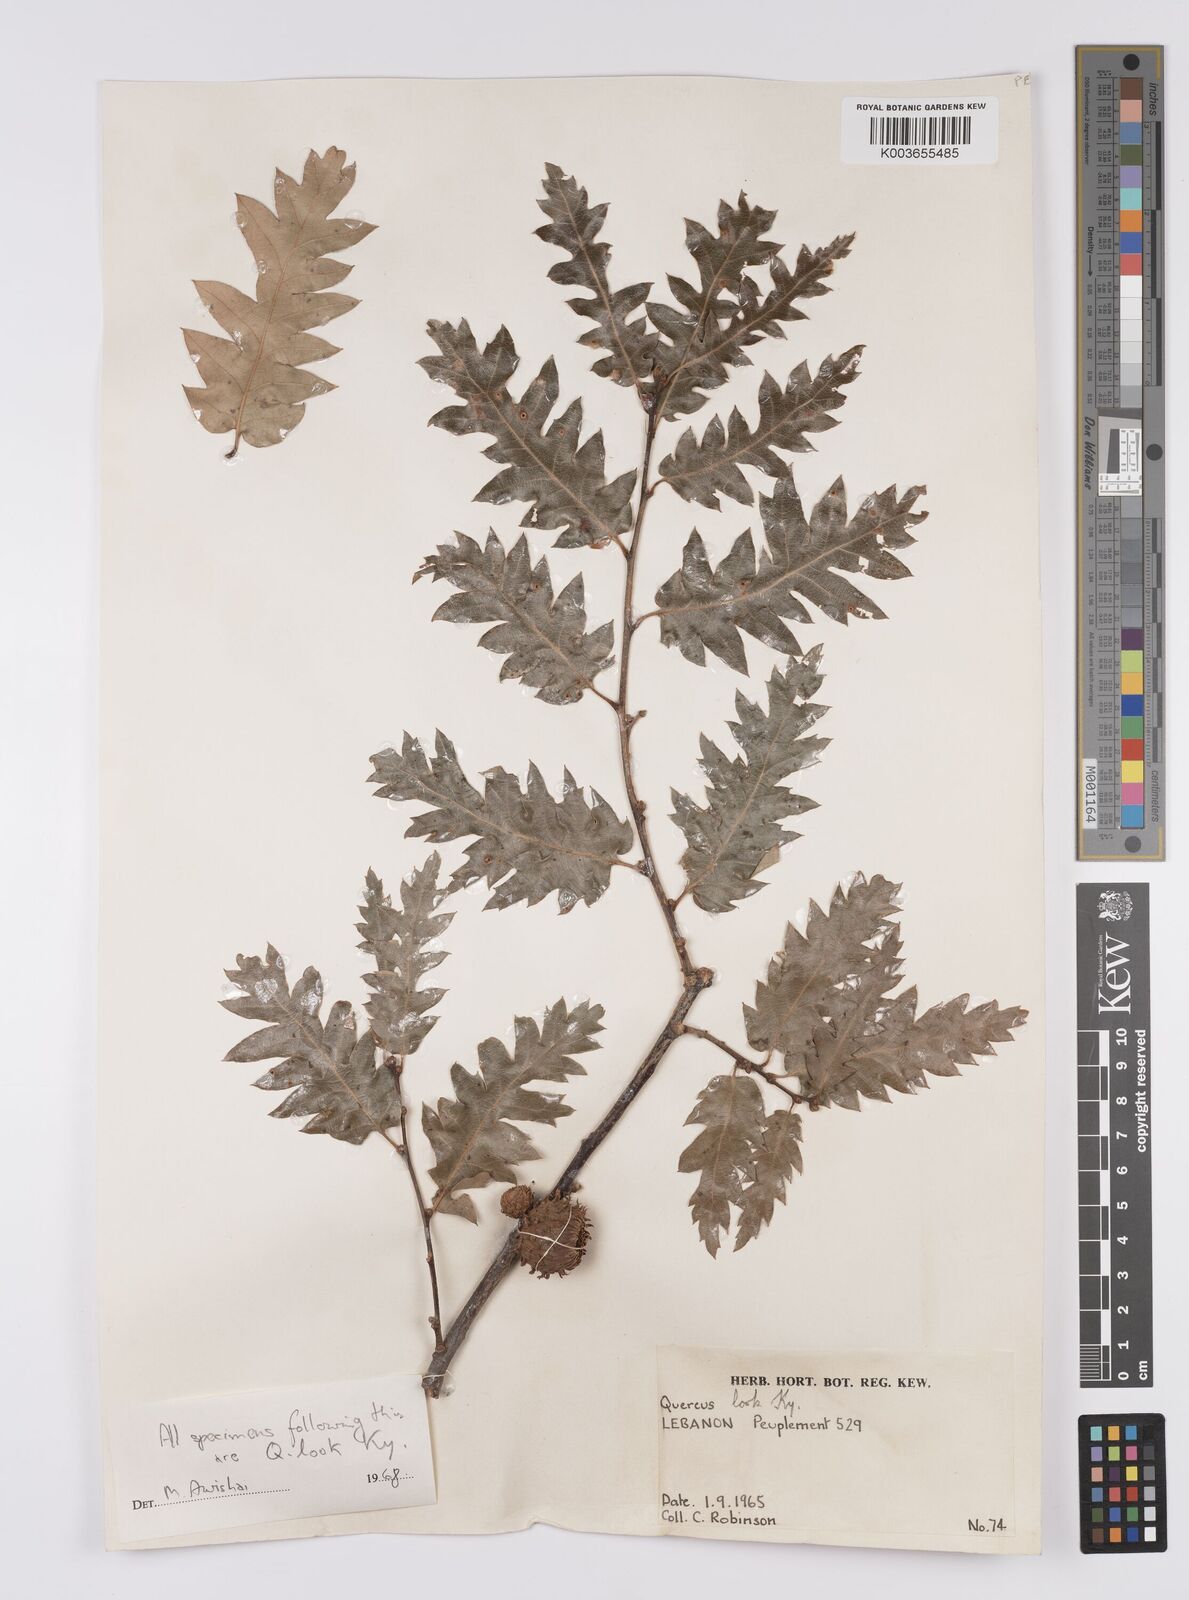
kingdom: Plantae
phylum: Tracheophyta
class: Magnoliopsida
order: Fagales
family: Fagaceae
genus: Quercus
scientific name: Quercus look
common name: Look oak
